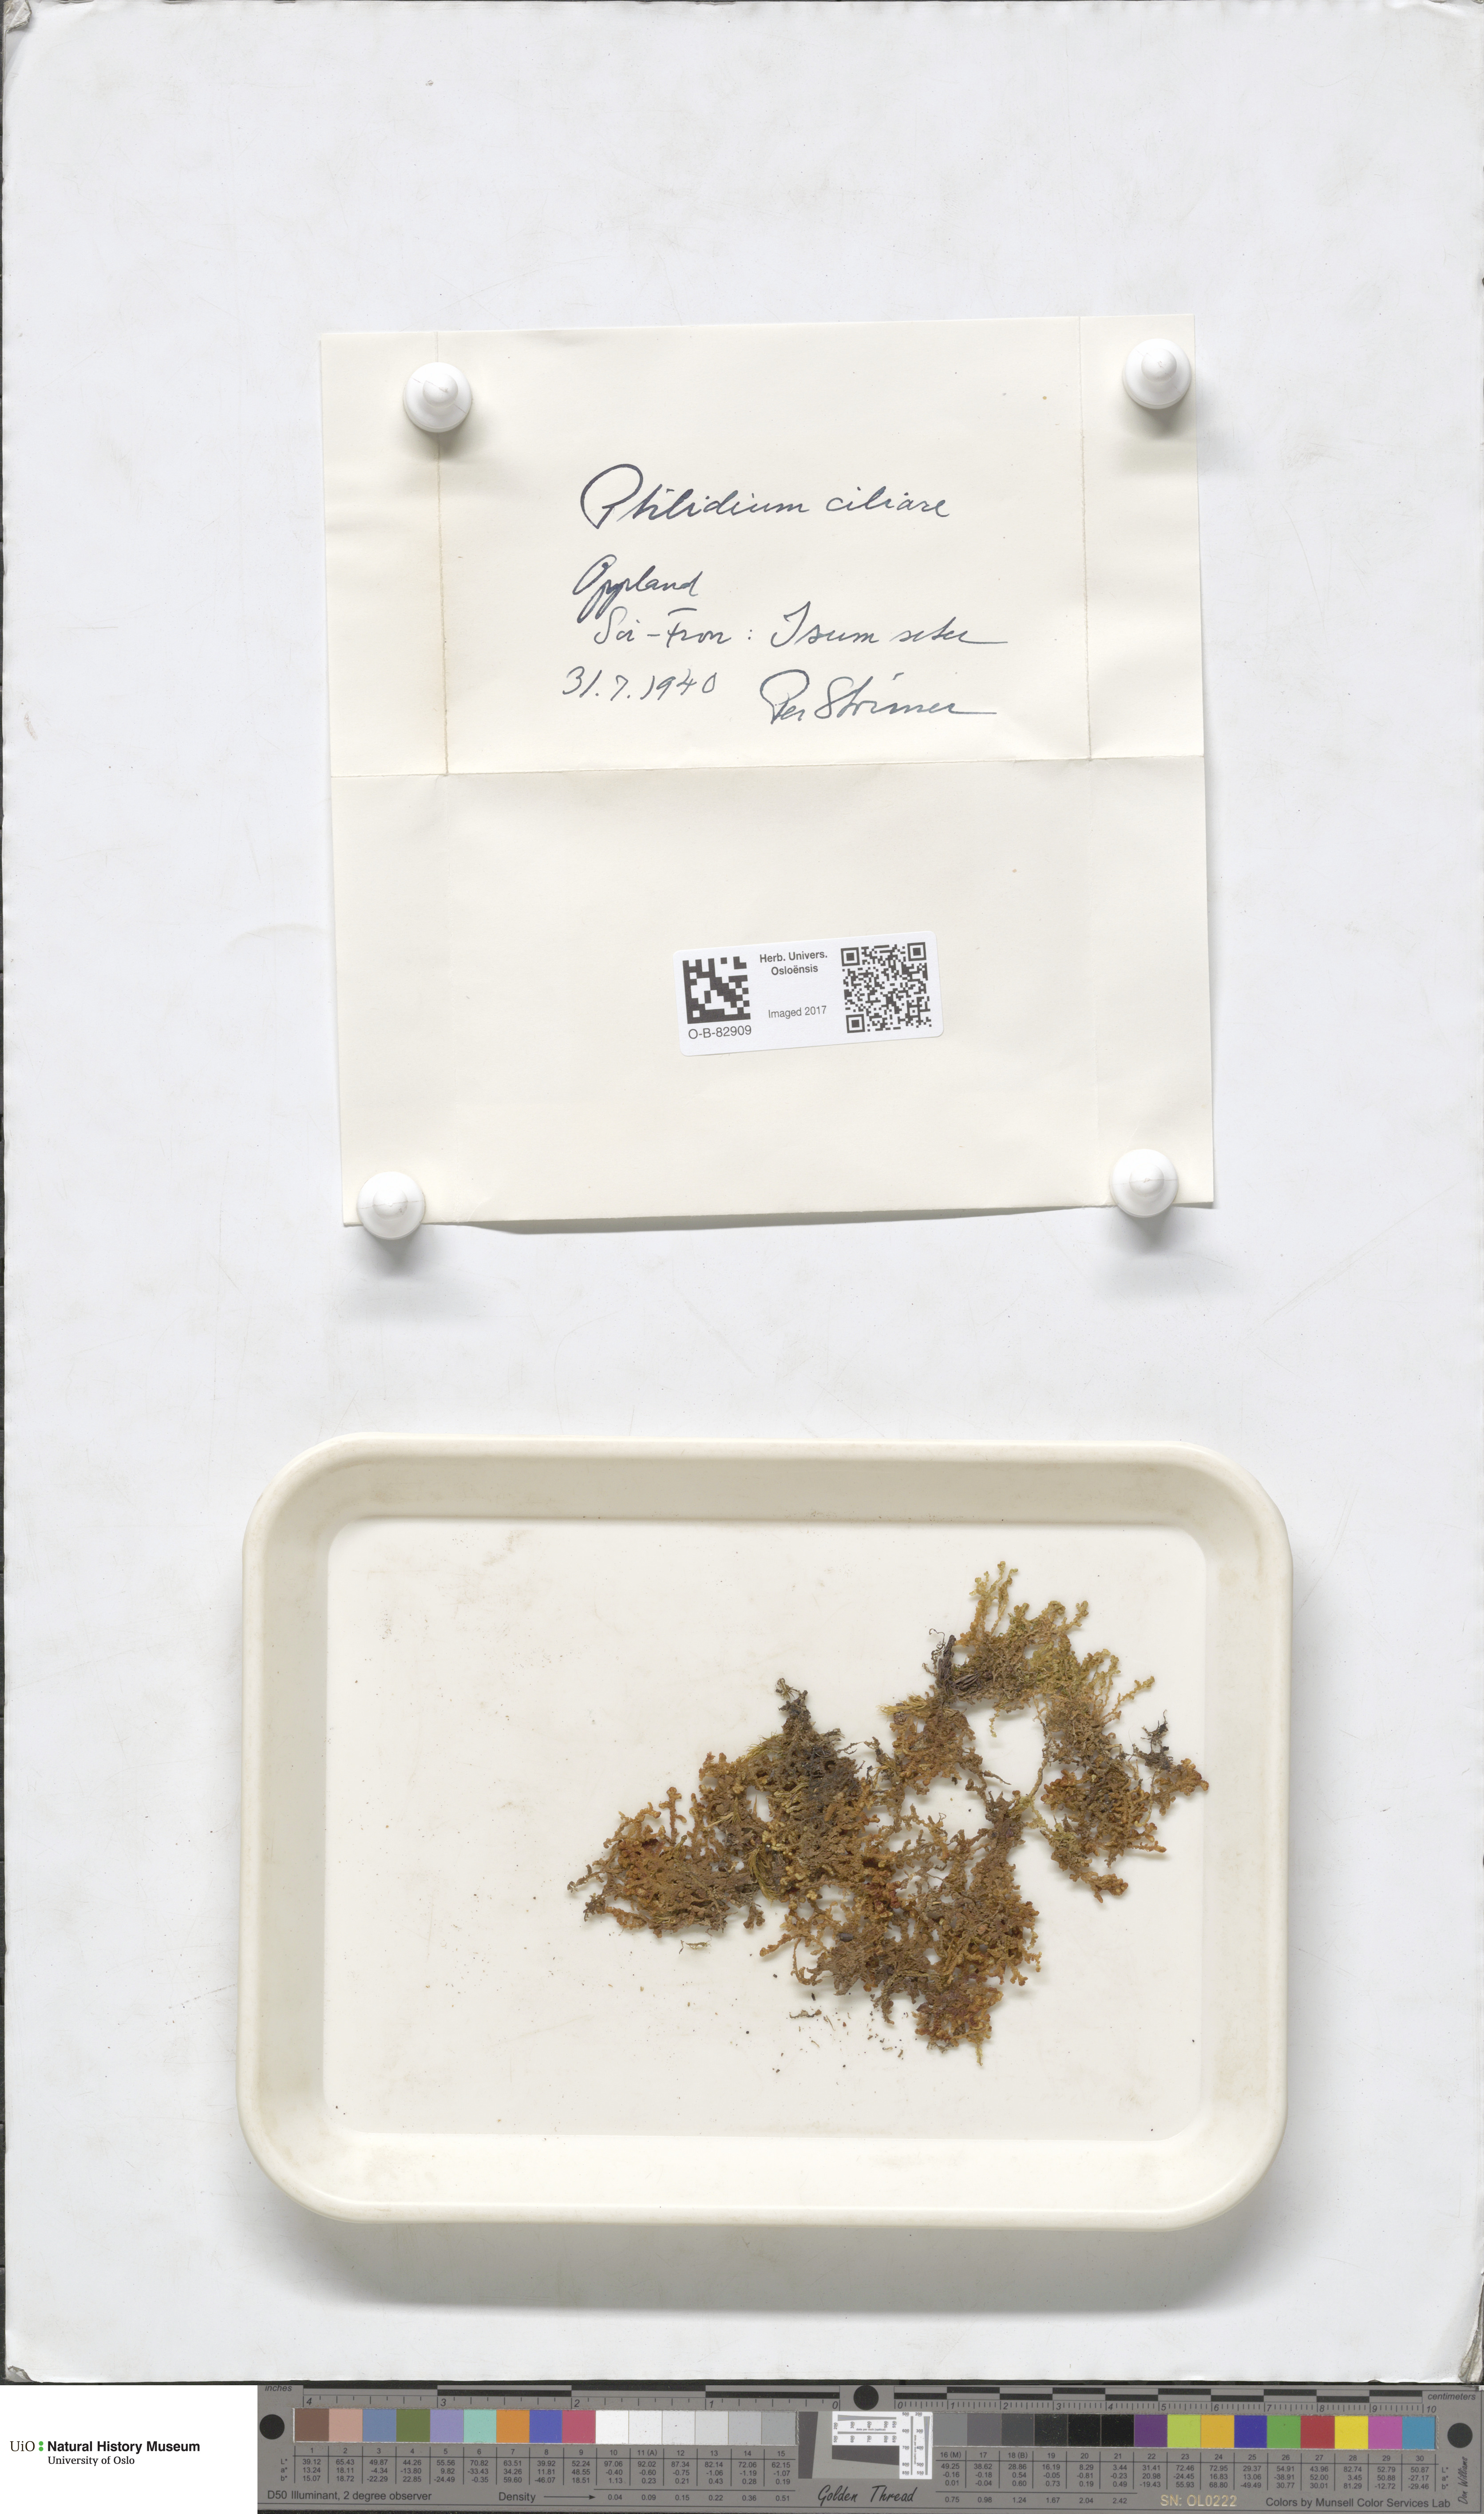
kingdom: Plantae
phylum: Marchantiophyta
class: Jungermanniopsida
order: Ptilidiales
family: Ptilidiaceae
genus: Ptilidium
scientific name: Ptilidium ciliare
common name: Ciliate fringewort
